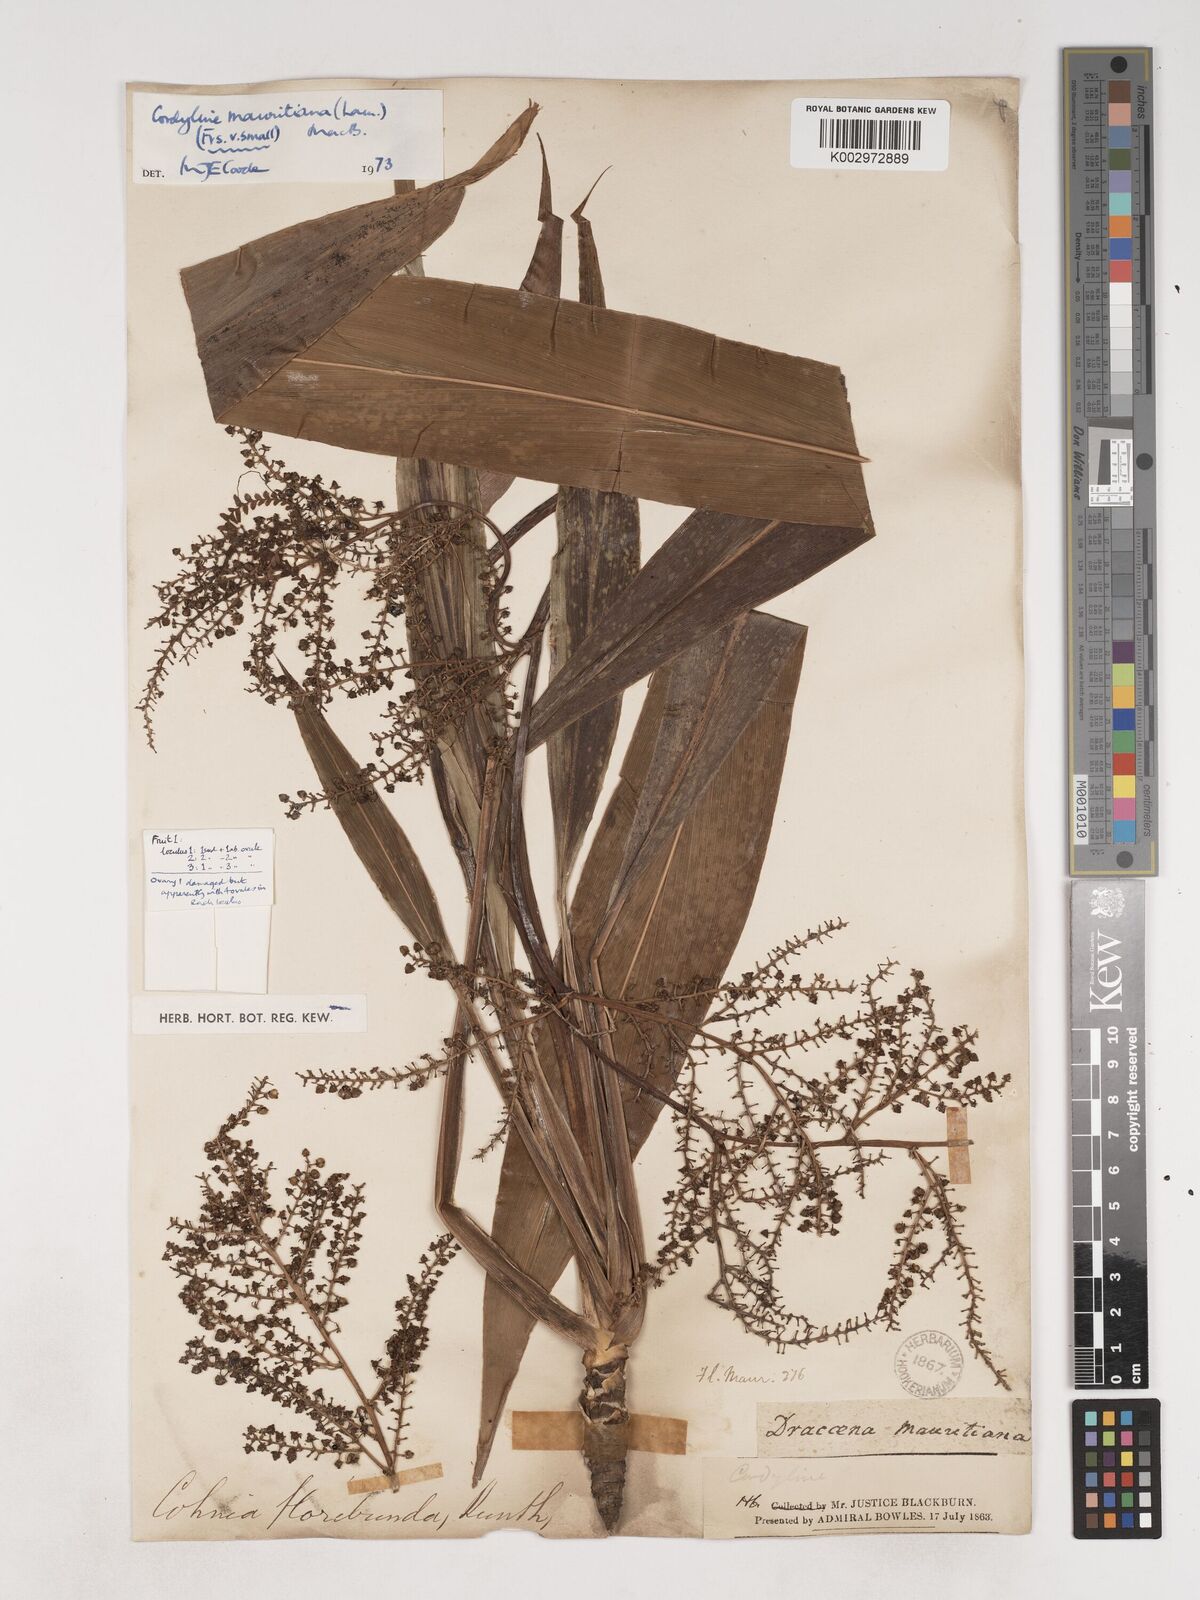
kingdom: Plantae
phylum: Tracheophyta
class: Liliopsida
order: Asparagales
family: Asparagaceae
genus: Cordyline
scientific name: Cordyline mauritiana
